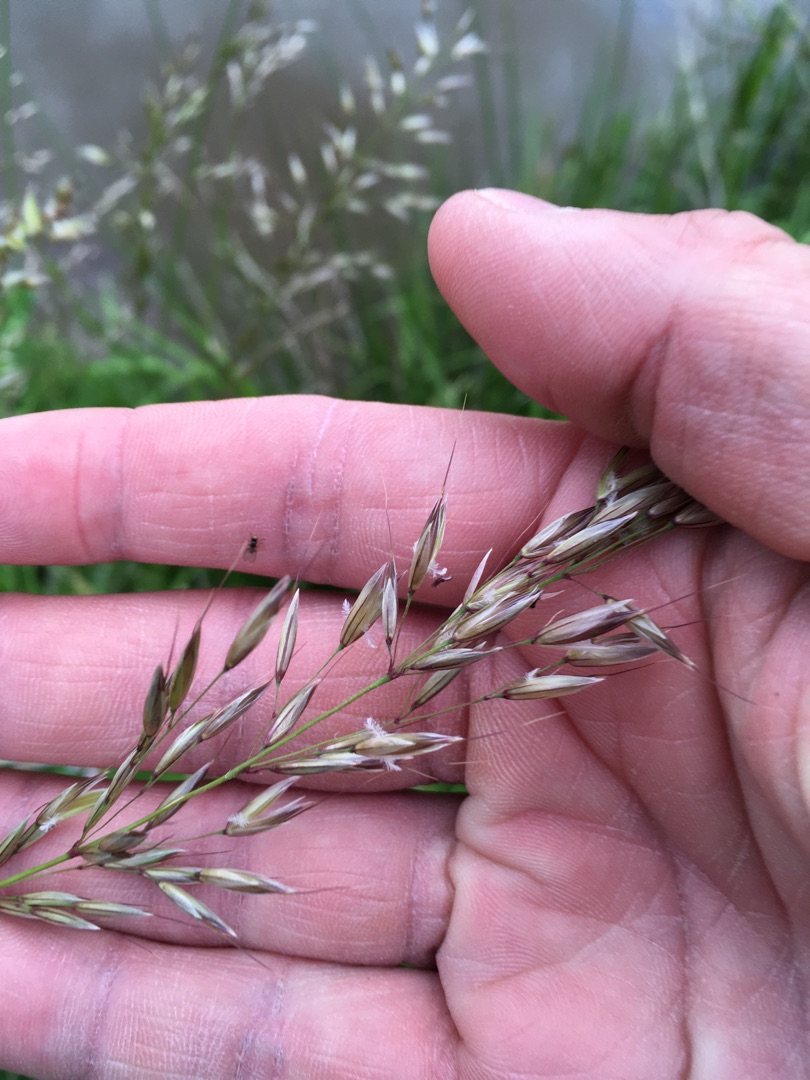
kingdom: Plantae
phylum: Tracheophyta
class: Liliopsida
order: Poales
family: Poaceae
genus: Arrhenatherum
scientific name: Arrhenatherum elatius
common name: Draphavre
